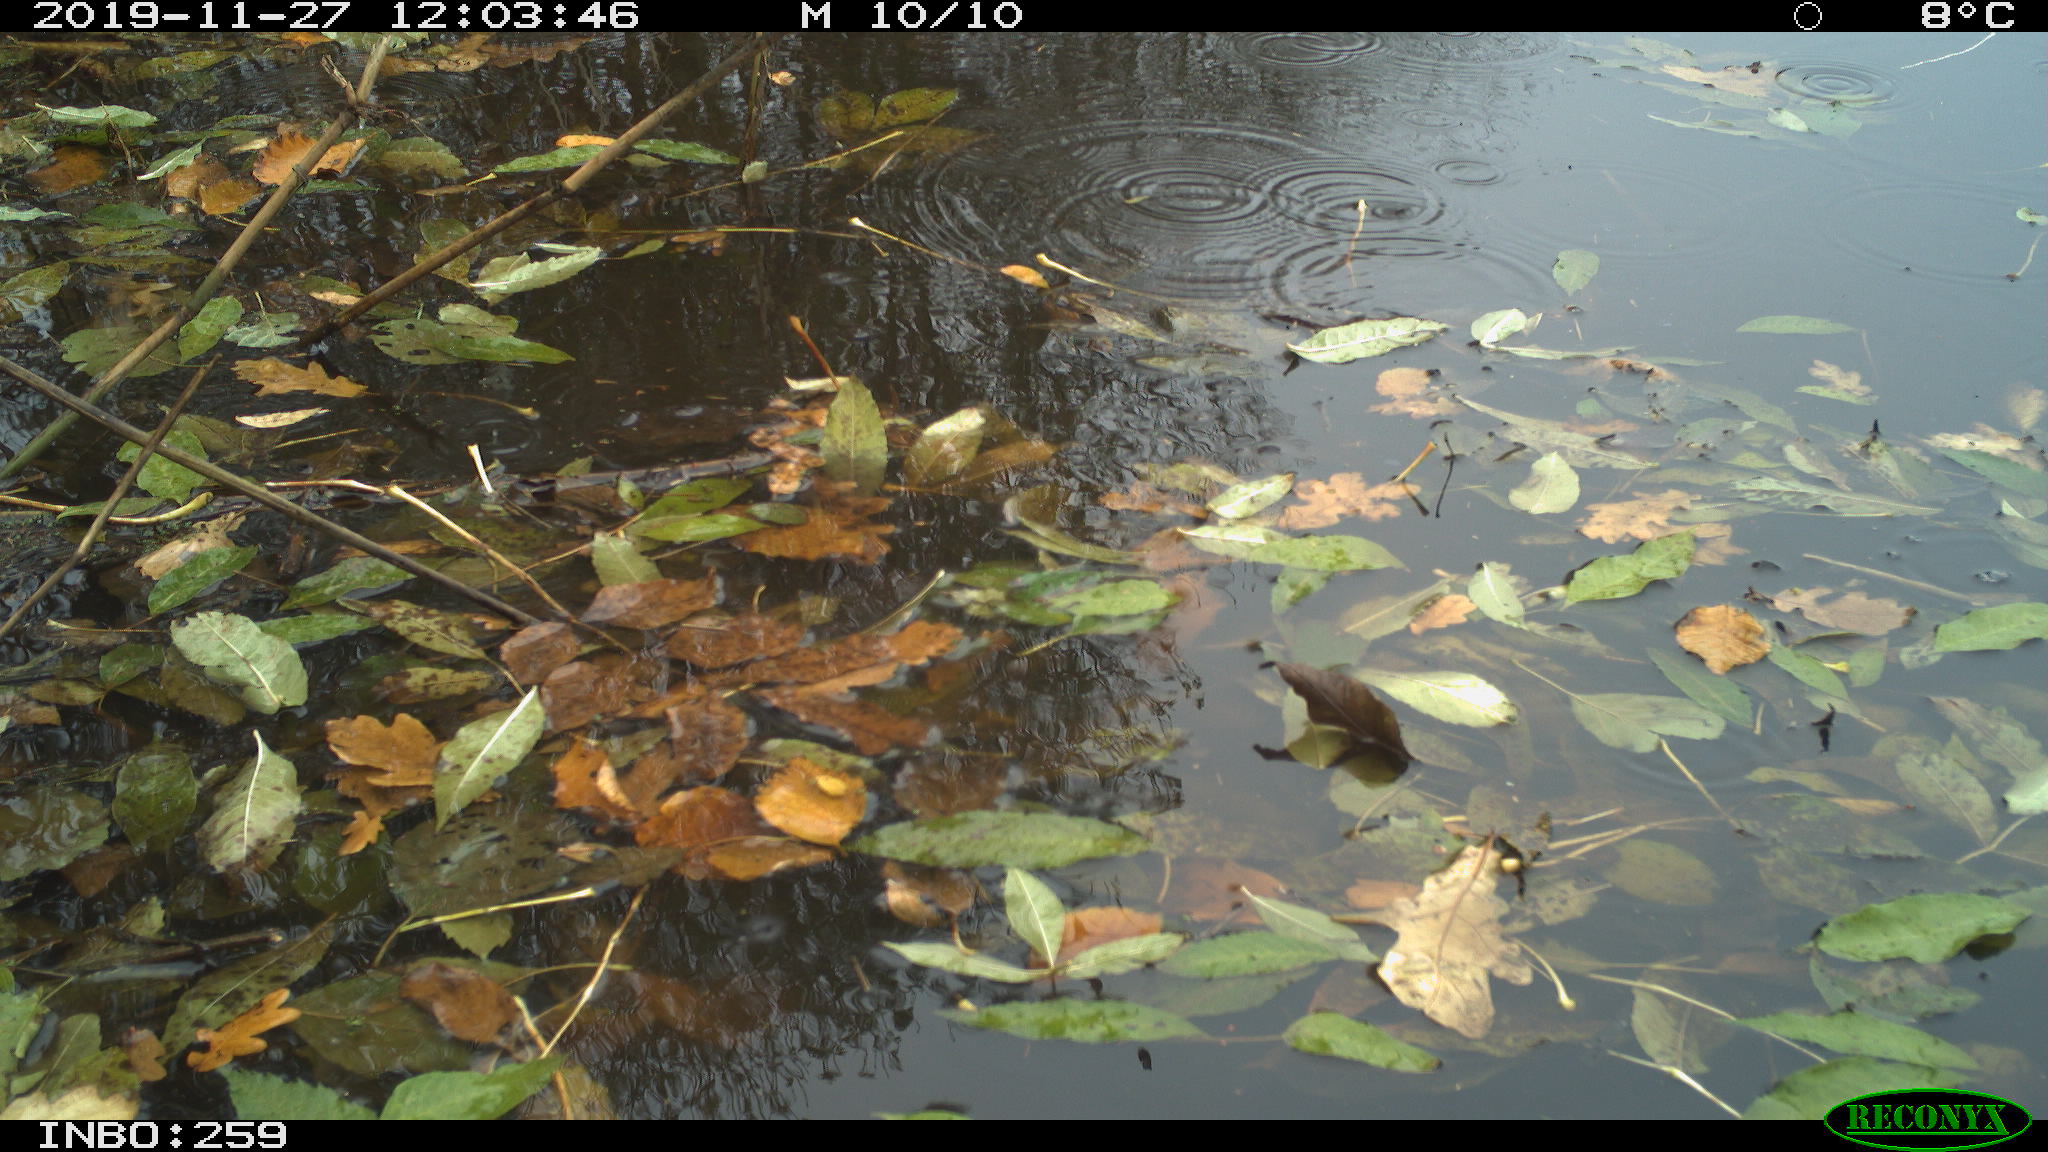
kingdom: Animalia
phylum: Chordata
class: Aves
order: Gruiformes
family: Rallidae
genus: Gallinula
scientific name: Gallinula chloropus
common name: Common moorhen
